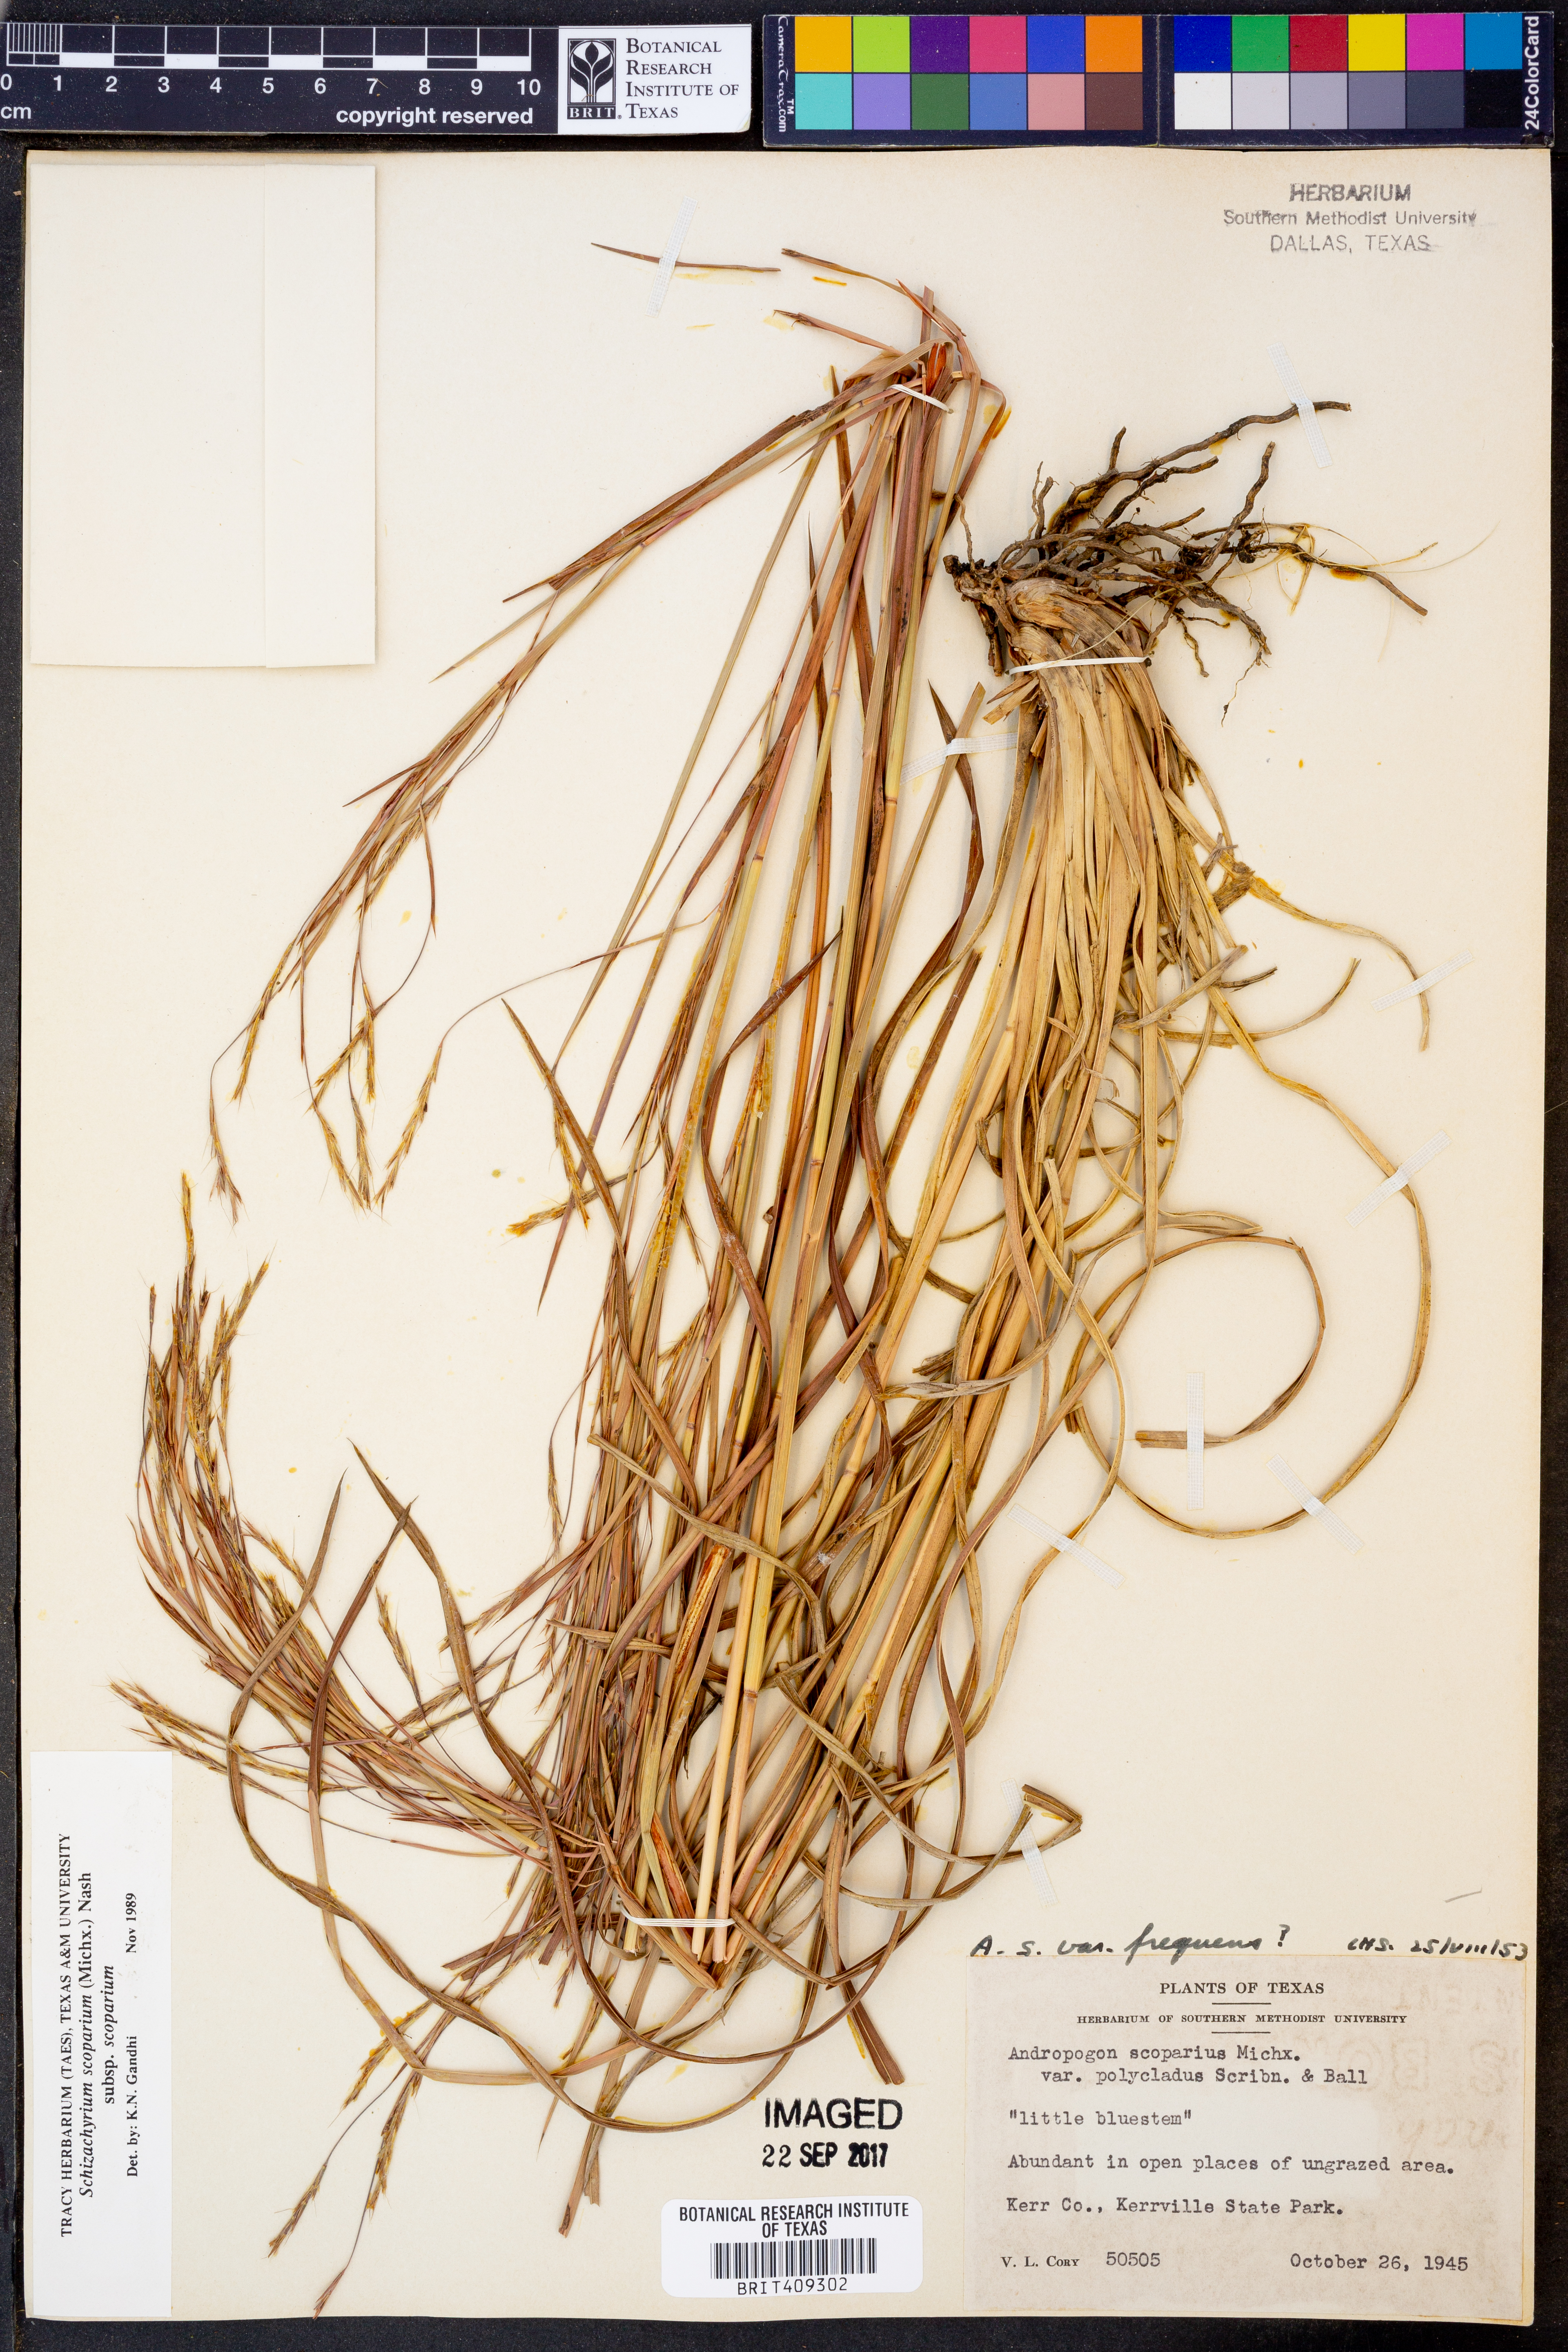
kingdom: Plantae
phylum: Tracheophyta
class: Liliopsida
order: Poales
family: Poaceae
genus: Schizachyrium
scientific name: Schizachyrium scoparium
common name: Little bluestem
